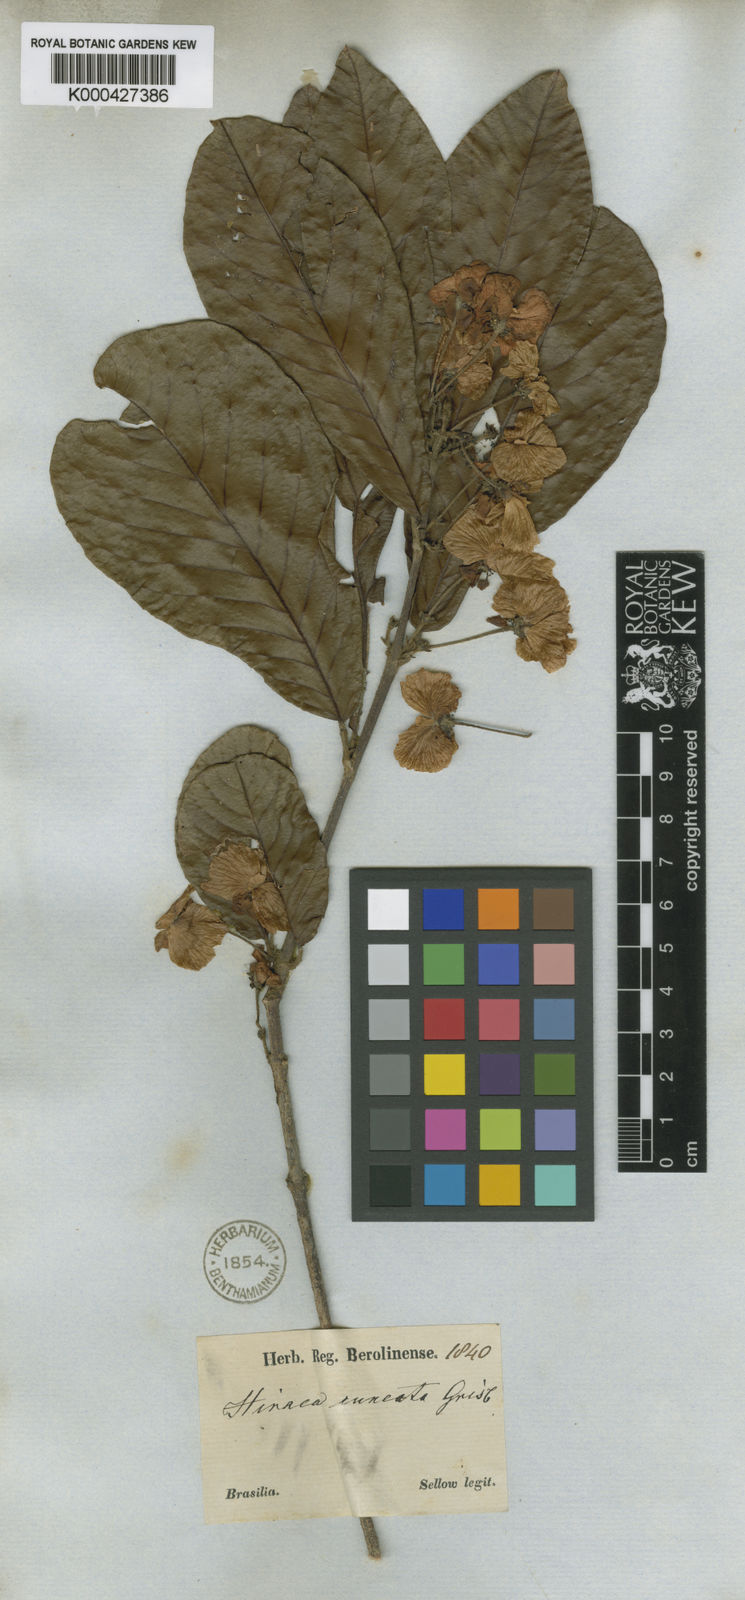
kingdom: Plantae
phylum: Tracheophyta
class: Magnoliopsida
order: Malpighiales
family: Malpighiaceae
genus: Hiraea
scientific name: Hiraea cuneata
